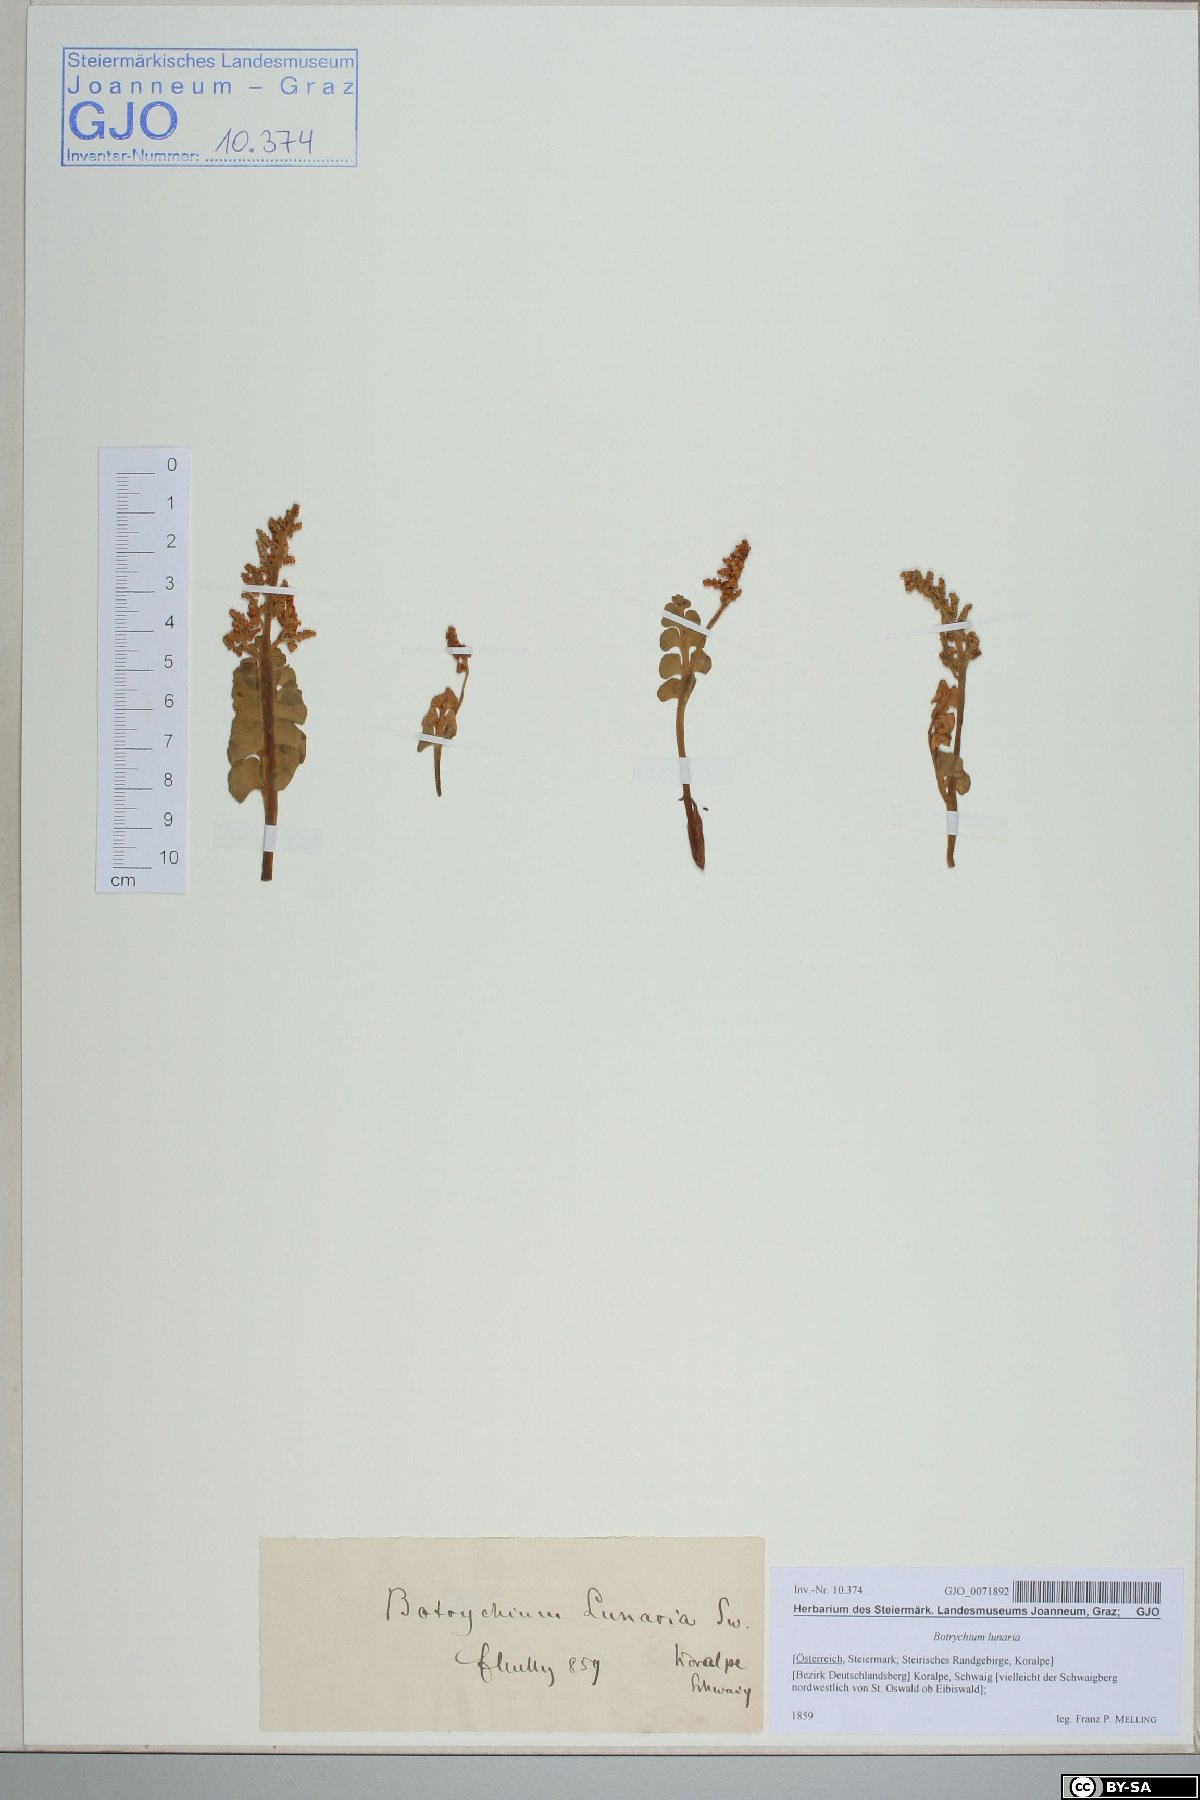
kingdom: Plantae
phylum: Tracheophyta
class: Polypodiopsida
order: Ophioglossales
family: Ophioglossaceae
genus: Botrychium
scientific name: Botrychium lunaria
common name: Moonwort
